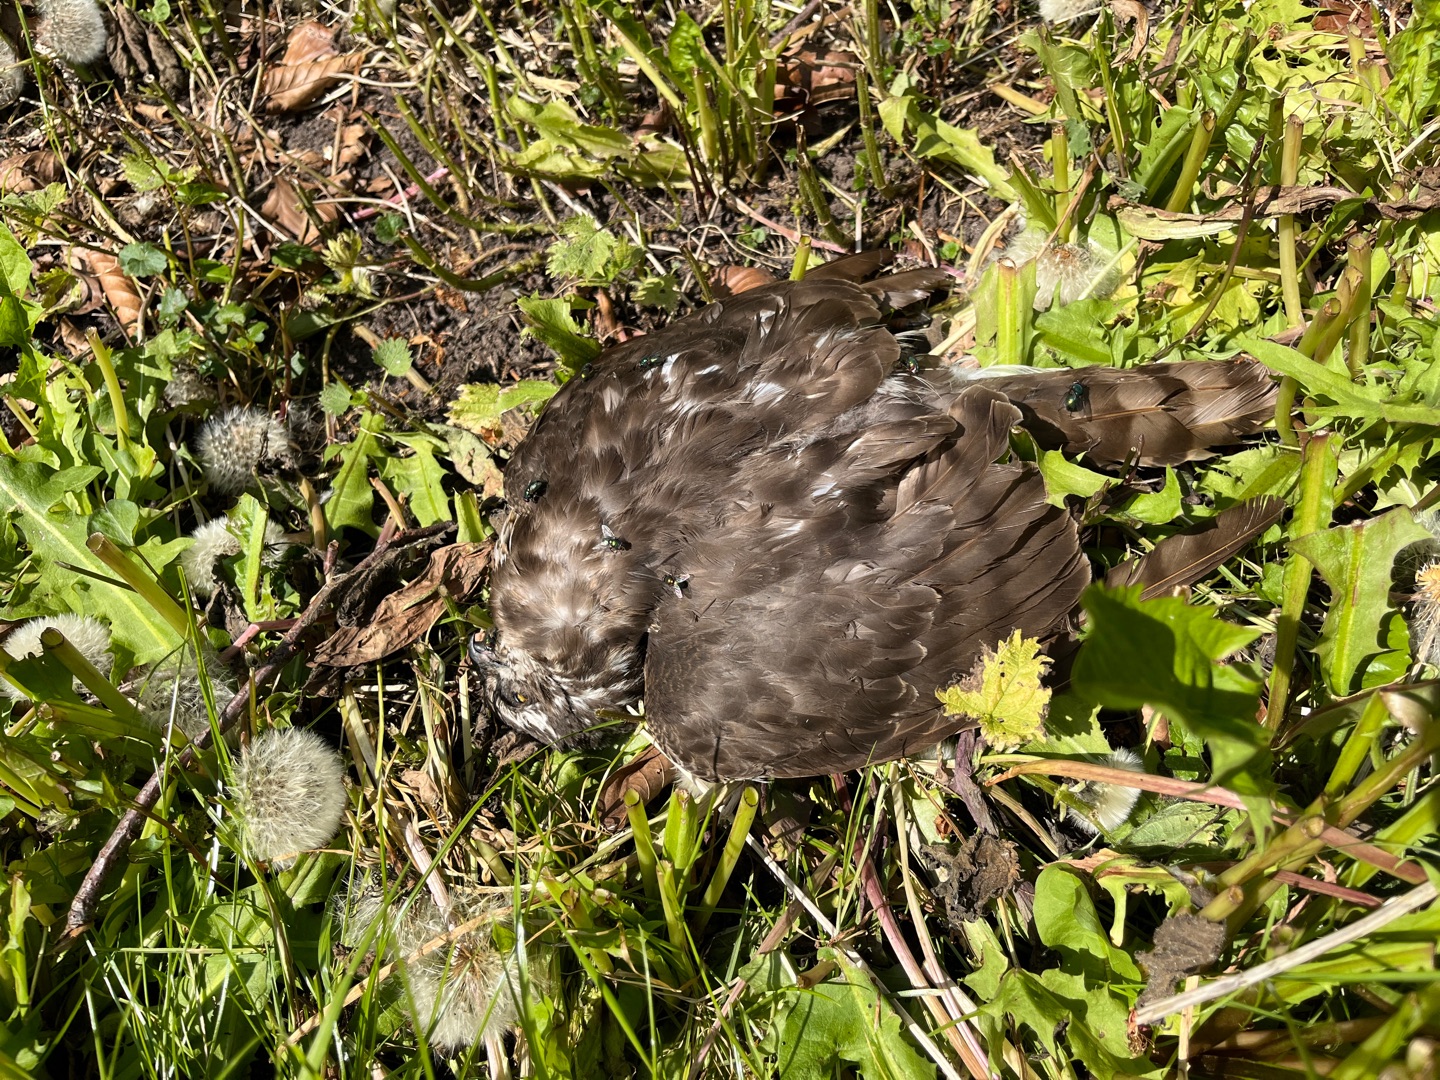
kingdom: Animalia
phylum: Chordata
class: Aves
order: Accipitriformes
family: Accipitridae
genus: Accipiter
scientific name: Accipiter nisus
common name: Spurvehøg
